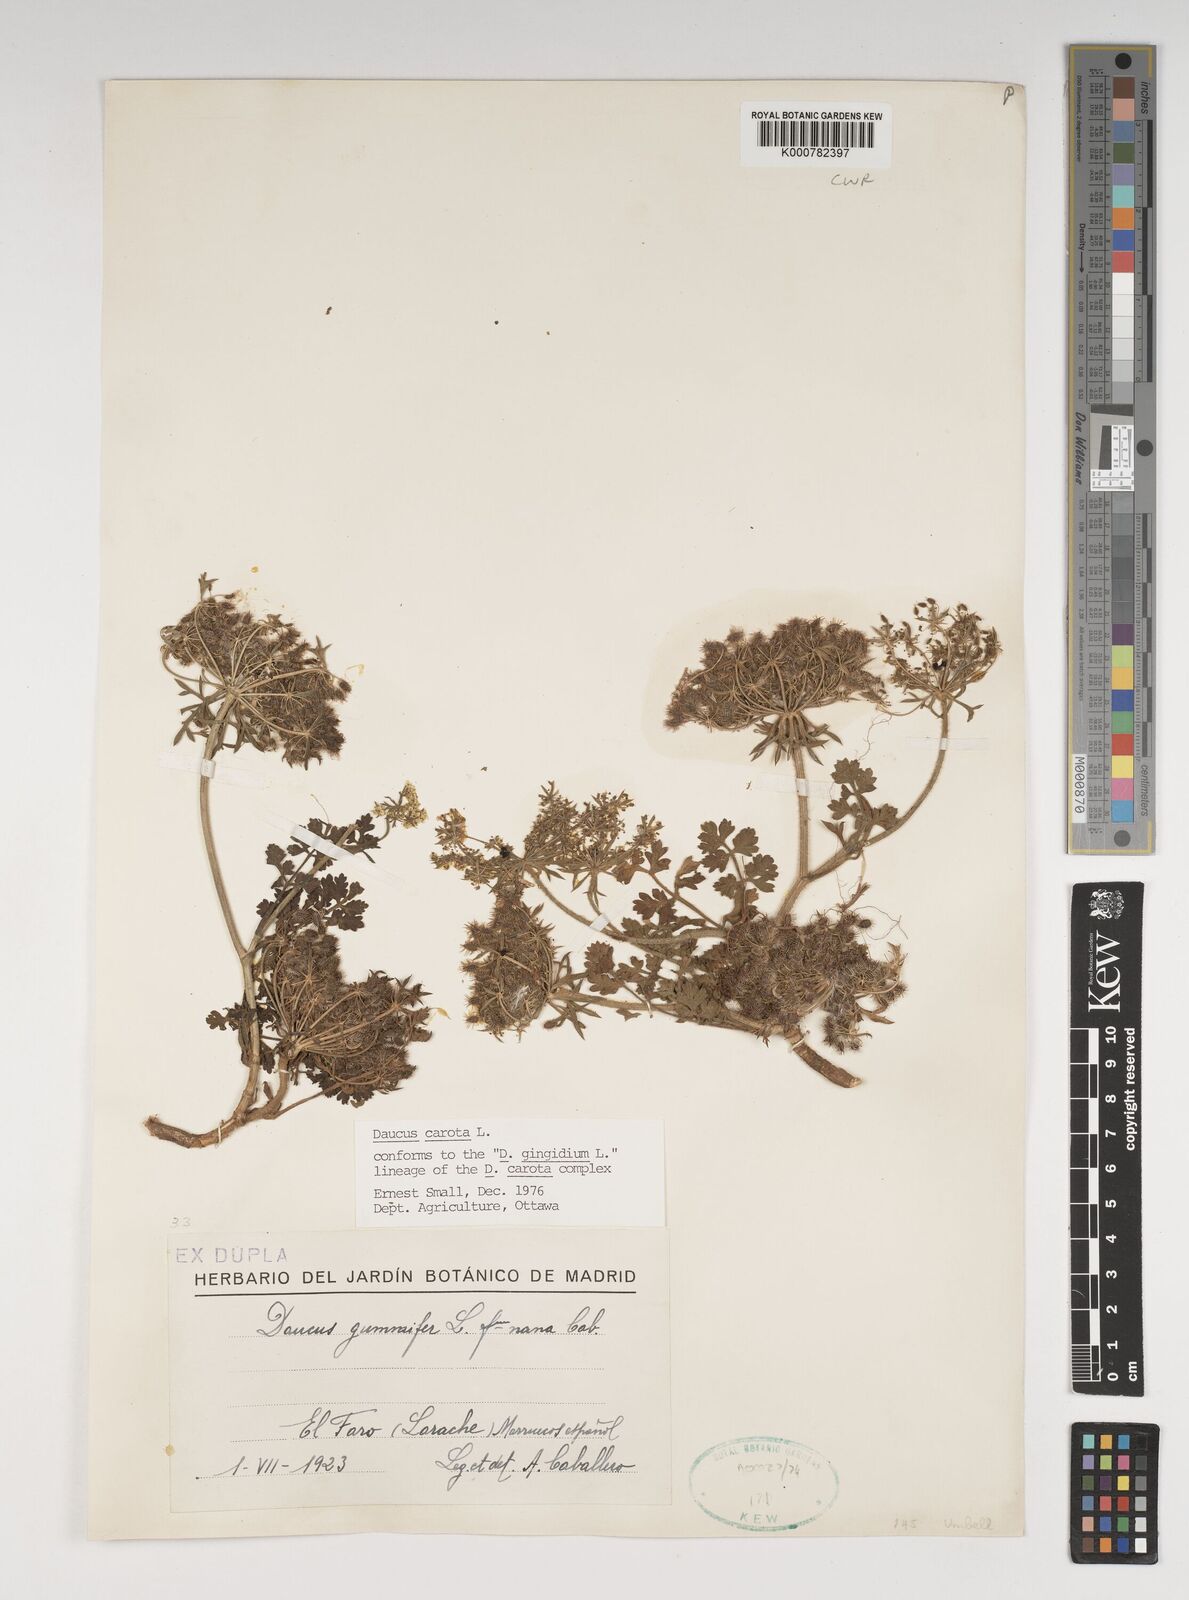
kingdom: Plantae
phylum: Tracheophyta
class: Magnoliopsida
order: Apiales
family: Apiaceae
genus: Daucus
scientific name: Daucus carota
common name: Wild carrot
